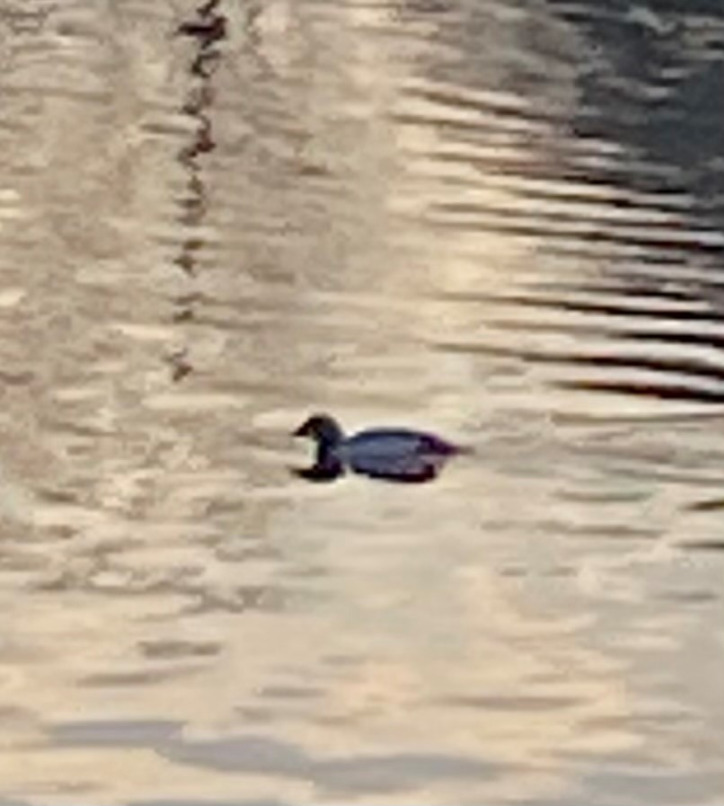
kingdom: Animalia
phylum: Chordata
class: Aves
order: Anseriformes
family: Anatidae
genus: Bucephala
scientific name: Bucephala clangula
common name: Hvinand
